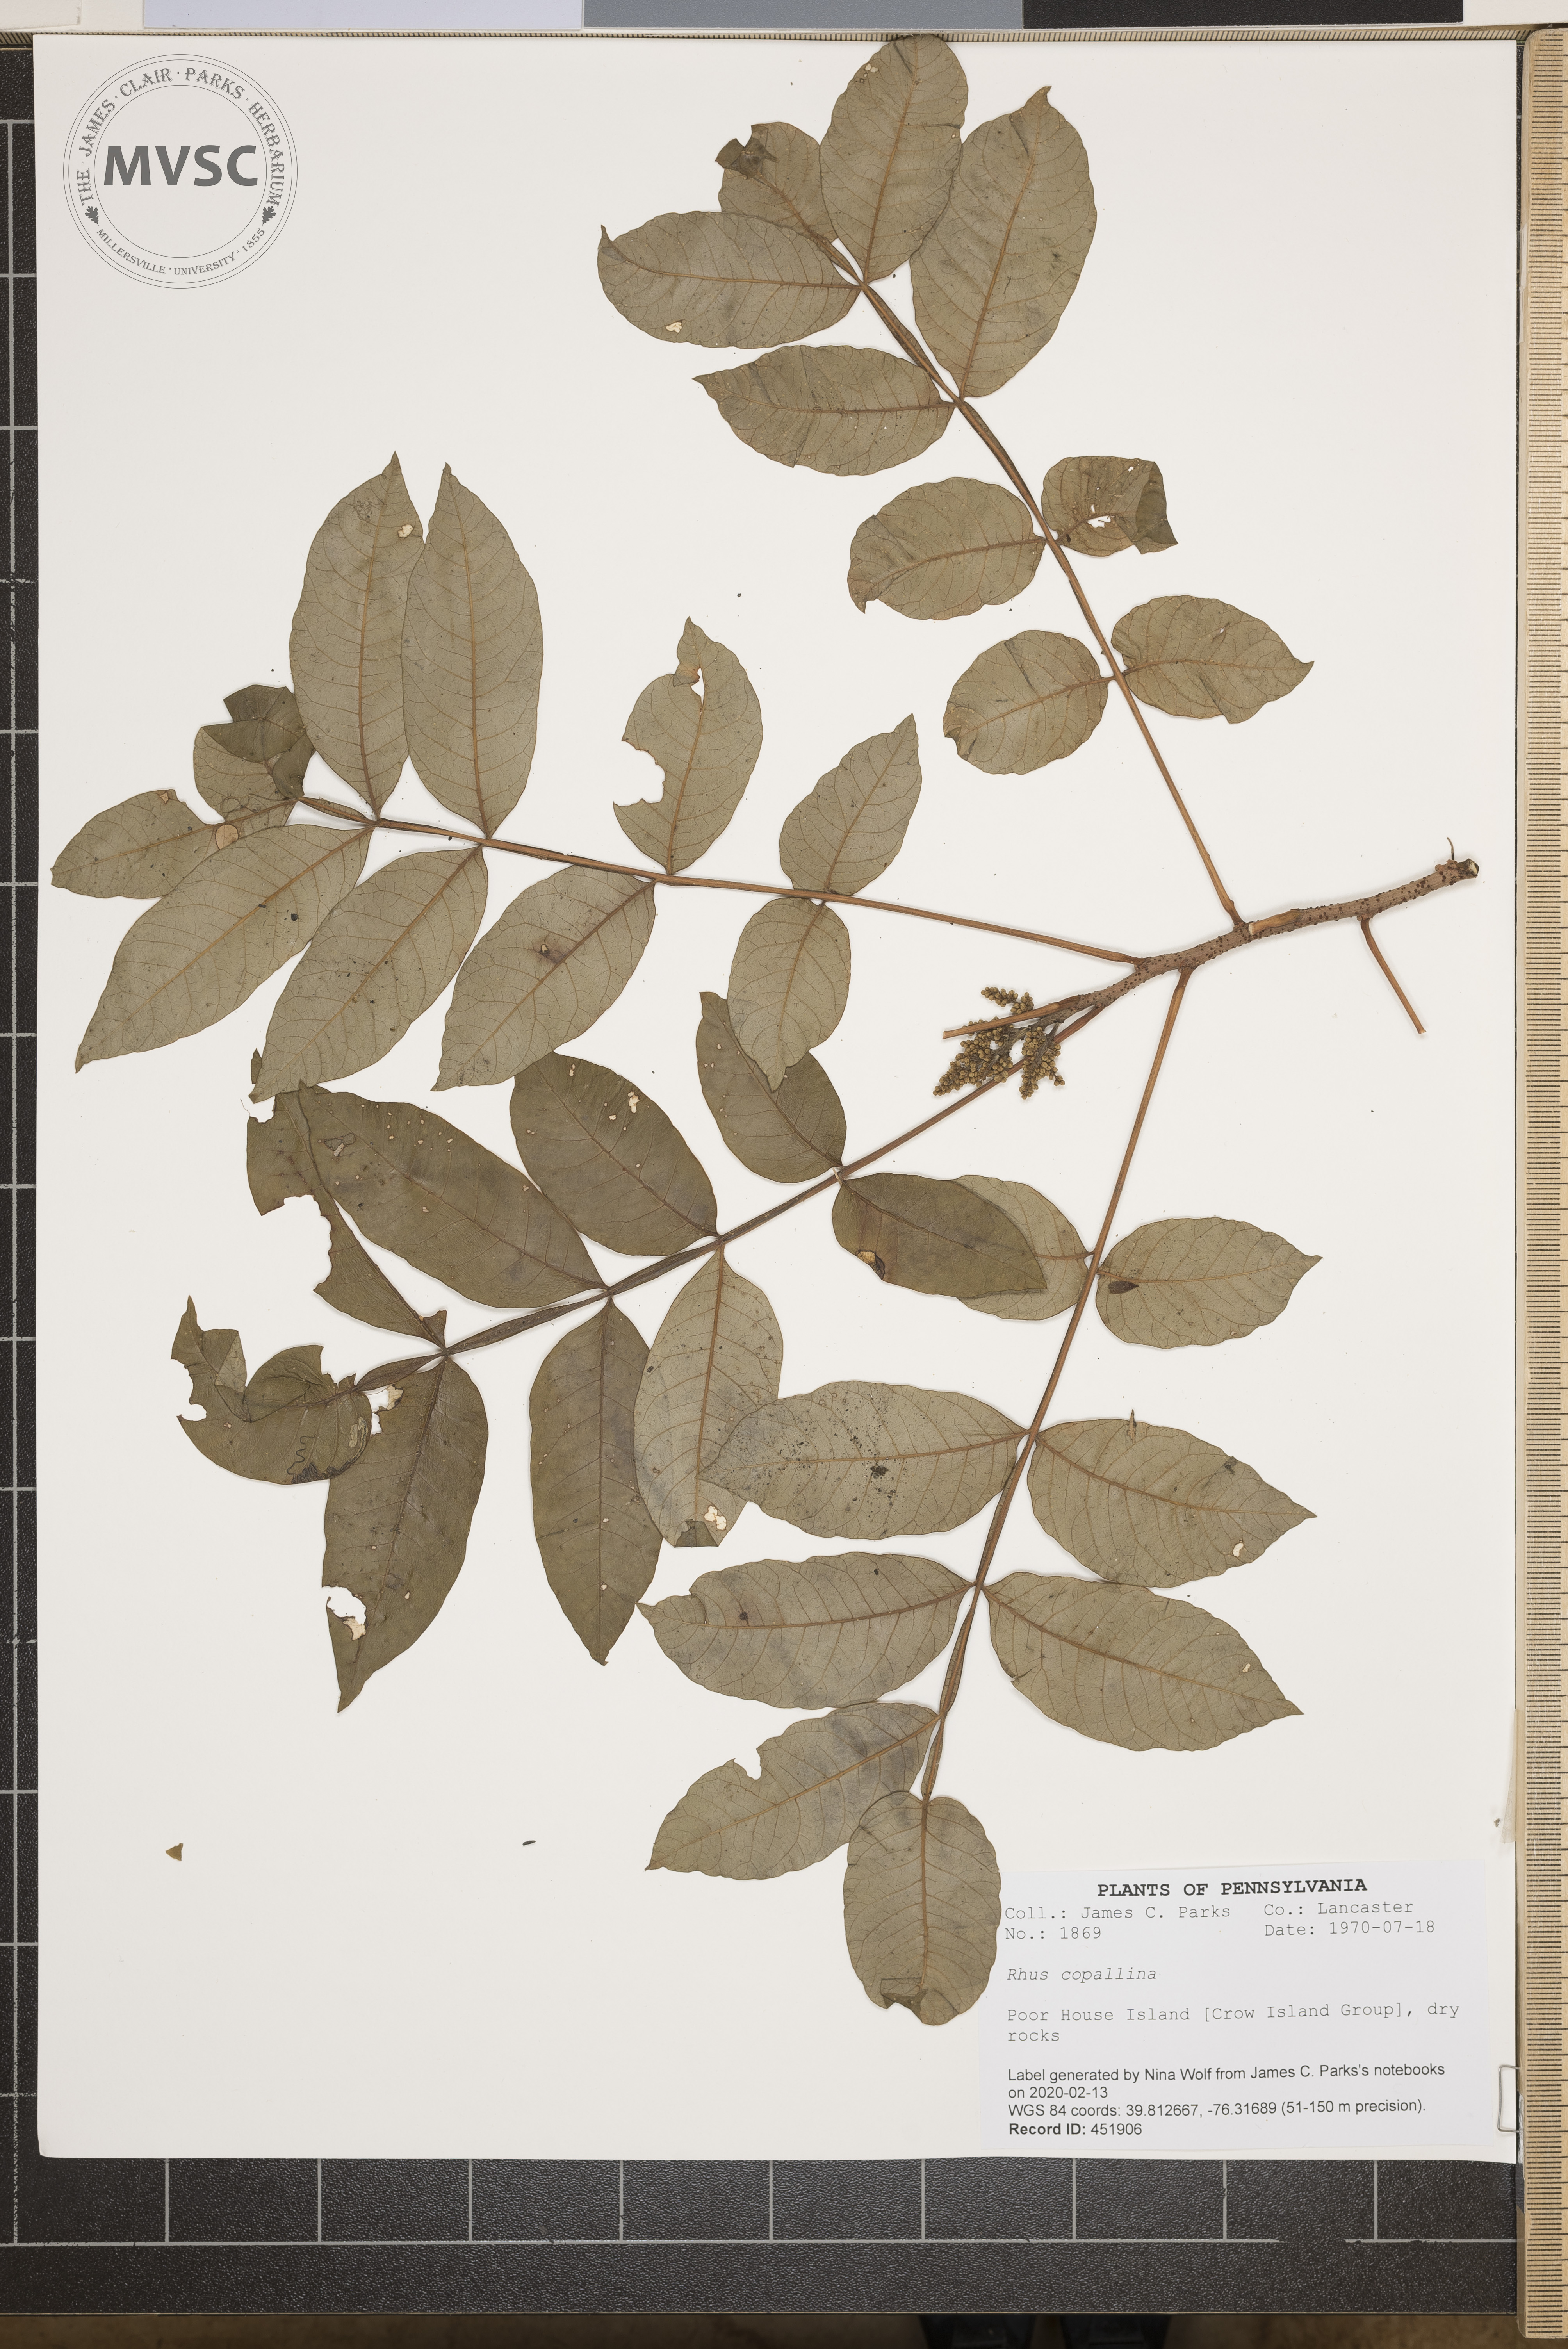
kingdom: Plantae
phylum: Tracheophyta
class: Magnoliopsida
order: Sapindales
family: Anacardiaceae
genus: Rhus
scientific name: Rhus copallina
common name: Shining sumac
